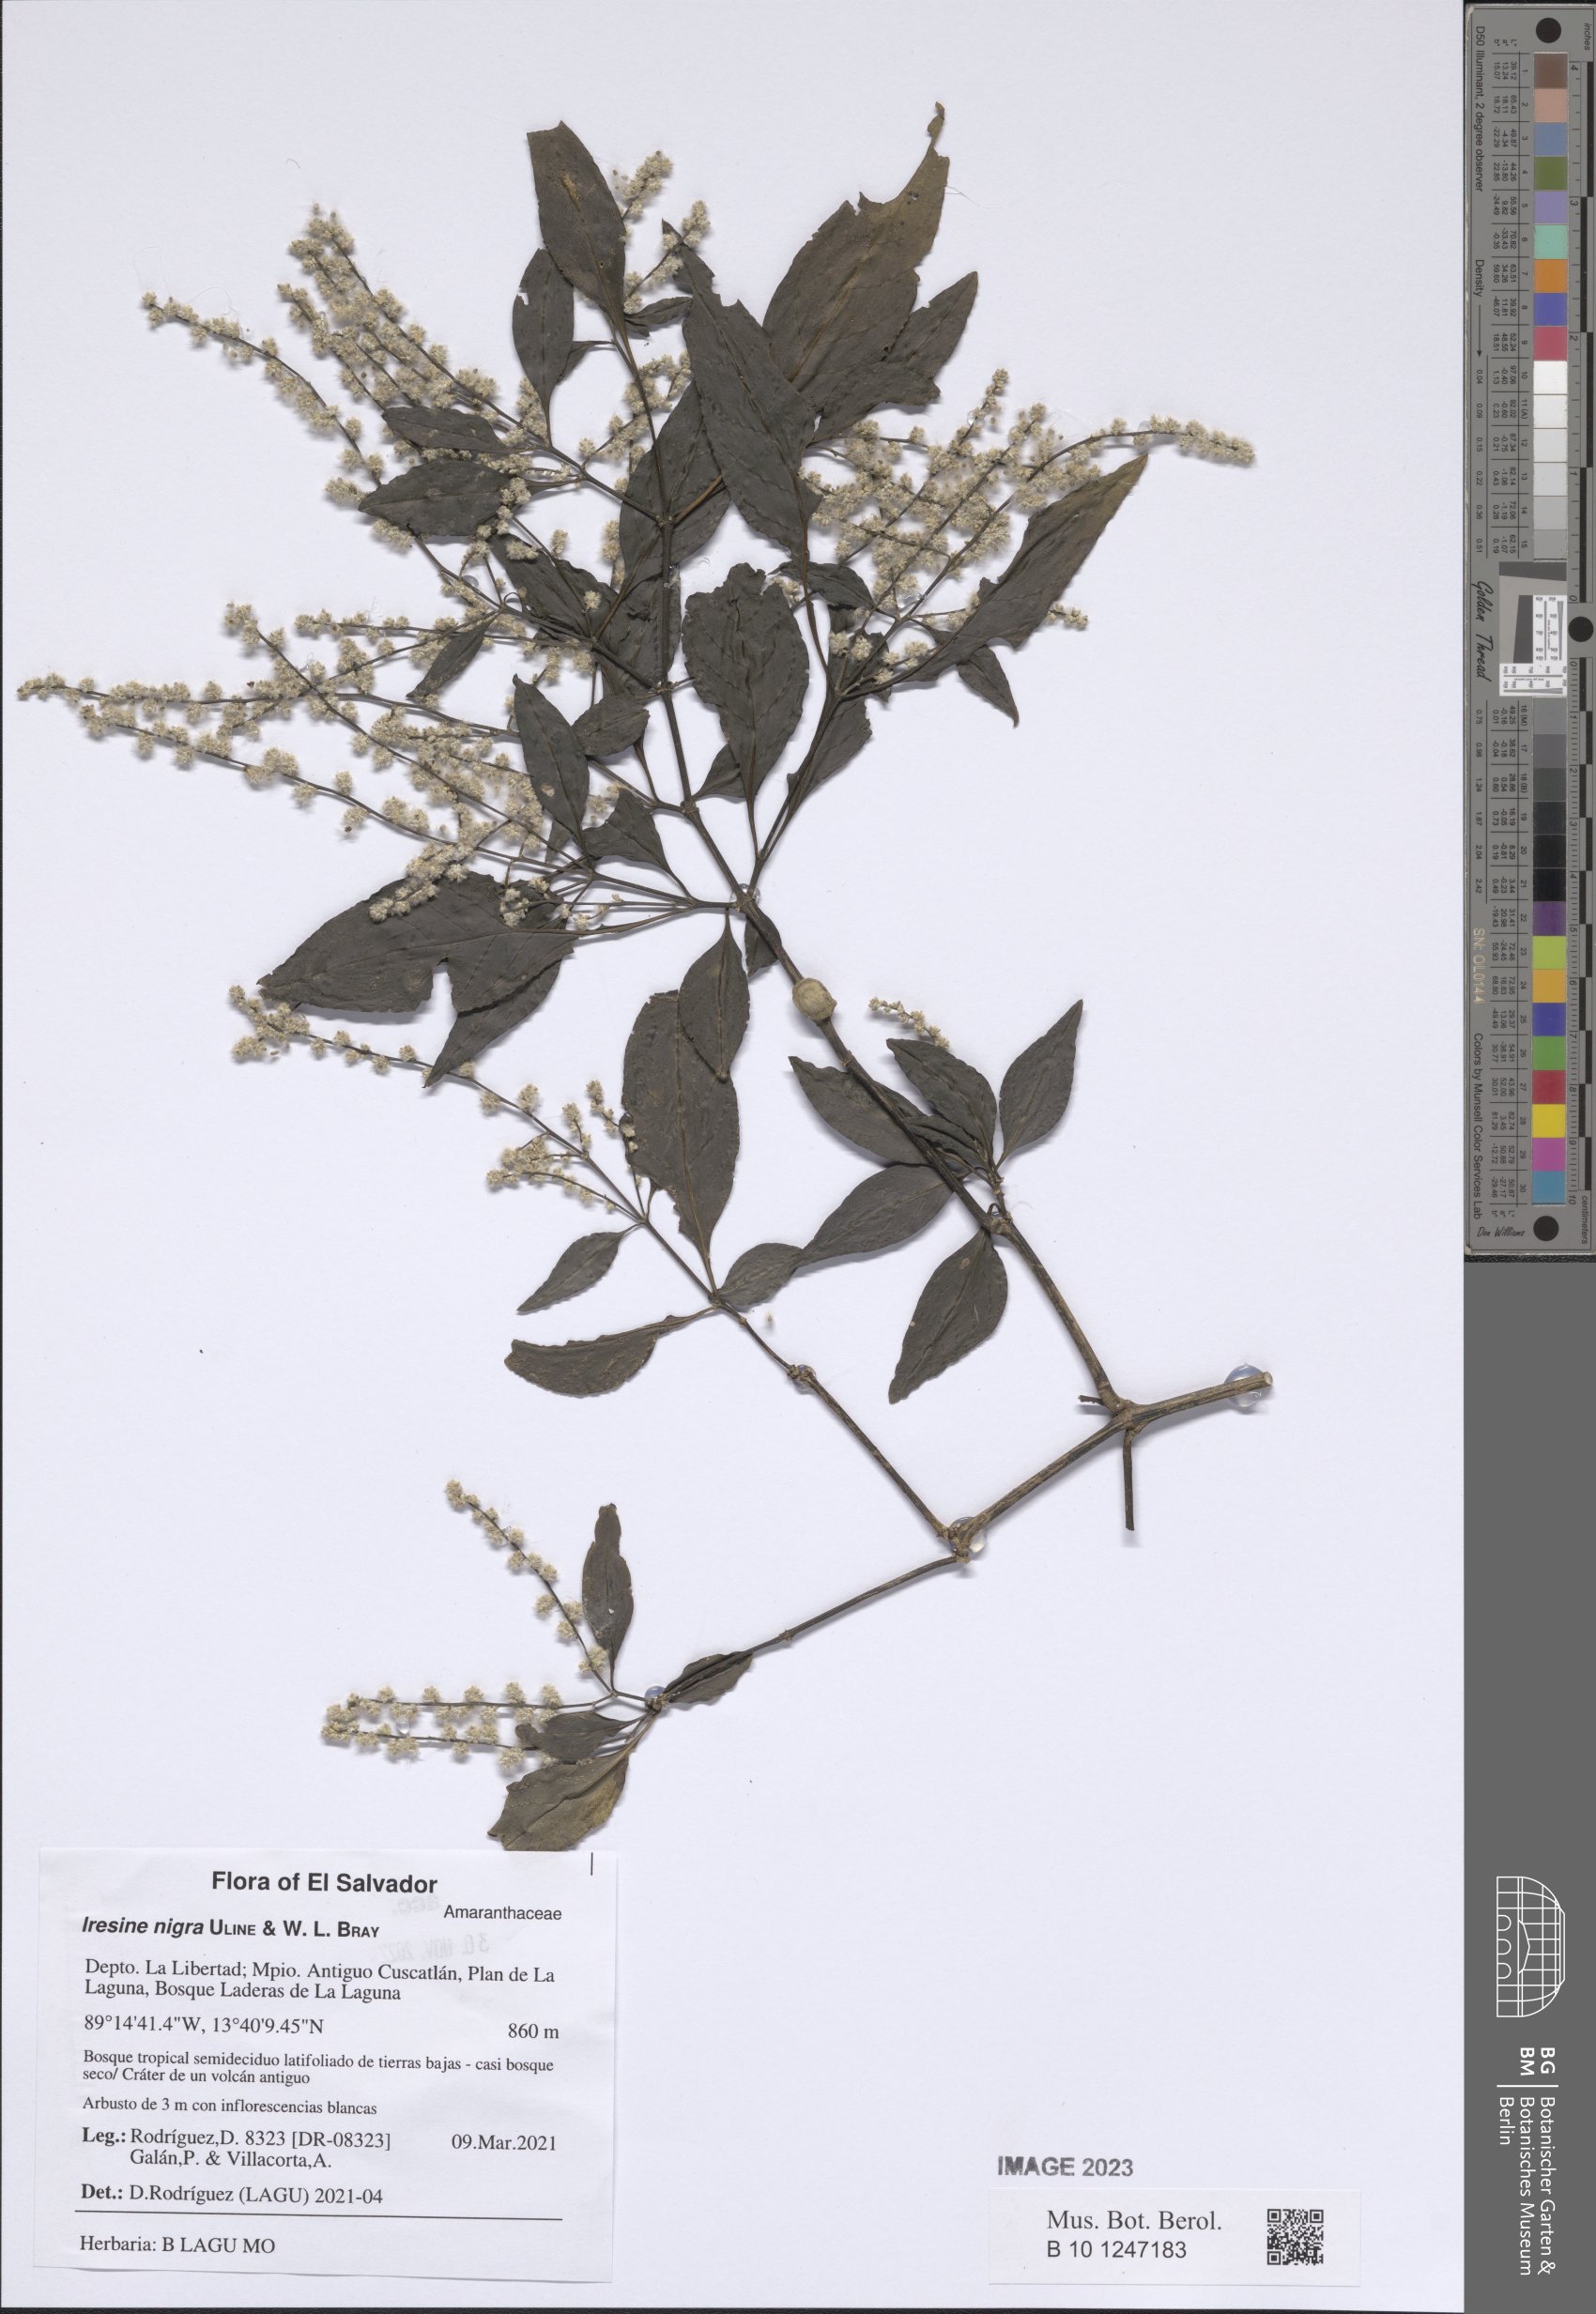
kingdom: Plantae
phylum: Tracheophyta
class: Magnoliopsida
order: Caryophyllales
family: Amaranthaceae
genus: Iresine
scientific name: Iresine nigra
